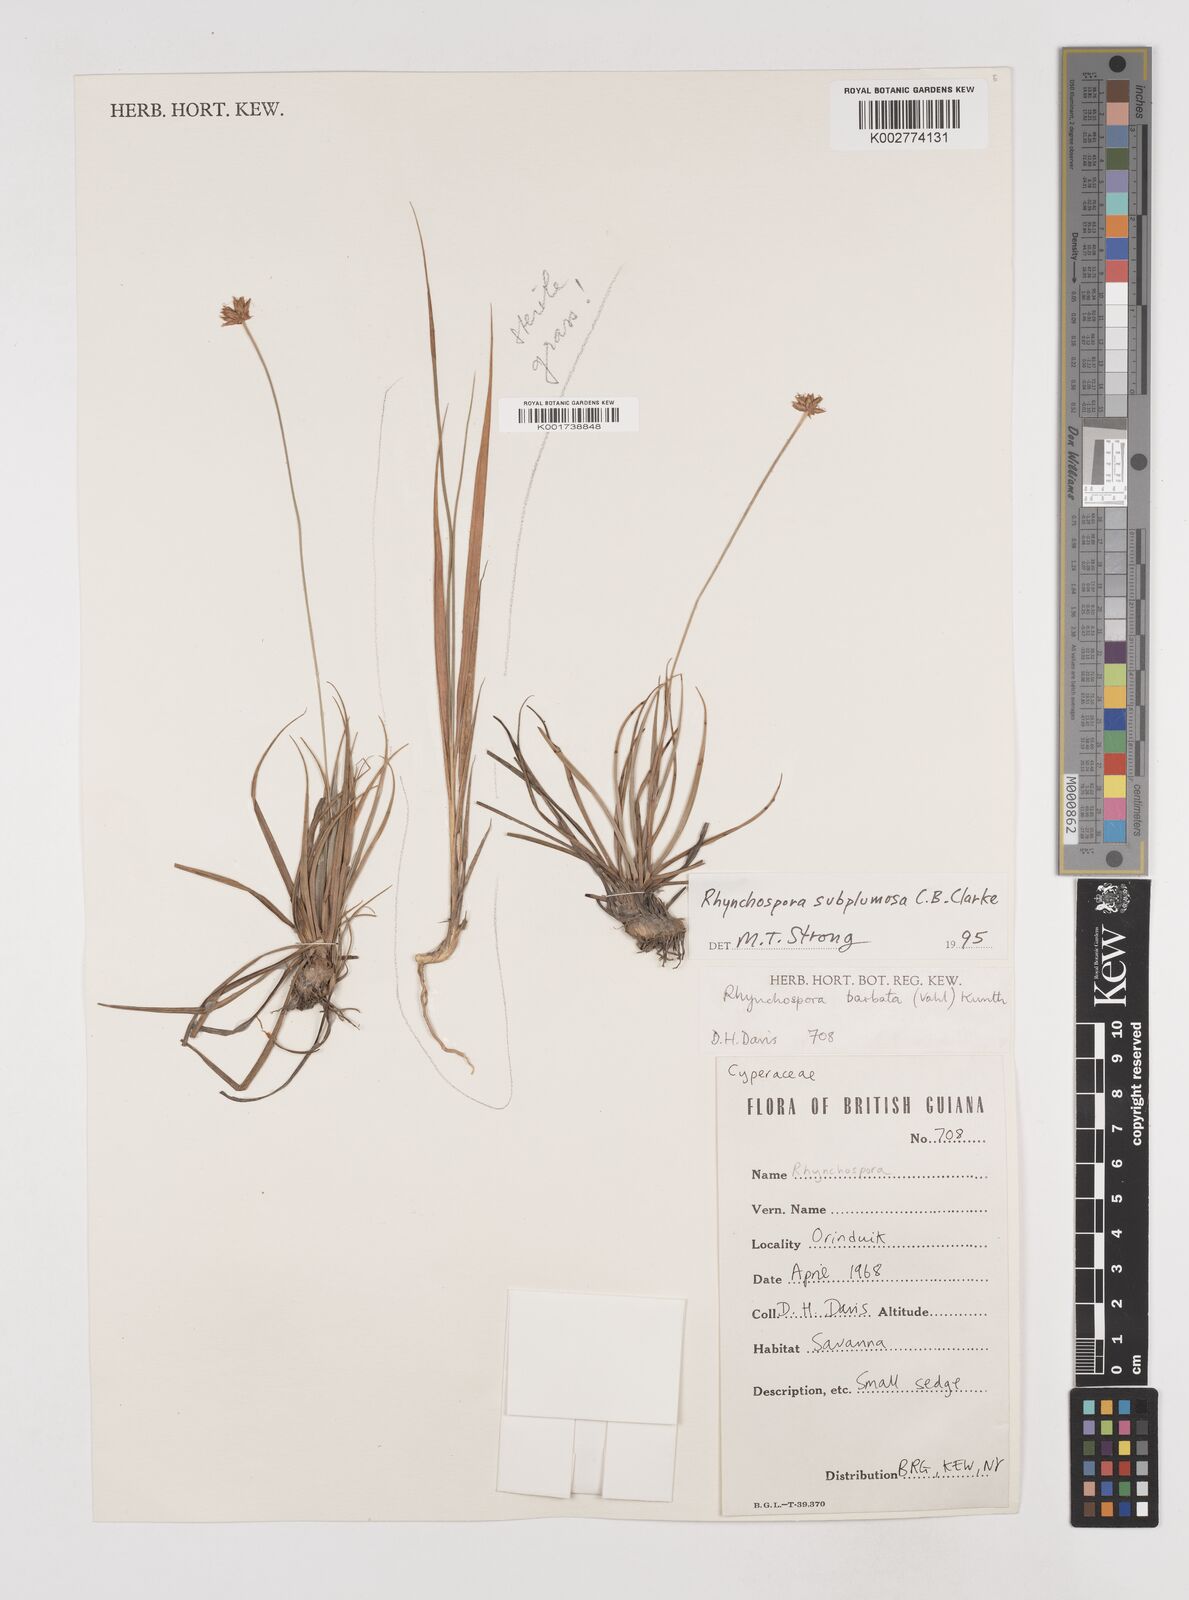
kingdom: Plantae
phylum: Tracheophyta
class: Liliopsida
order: Poales
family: Cyperaceae
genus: Rhynchospora
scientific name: Rhynchospora subplumosa
